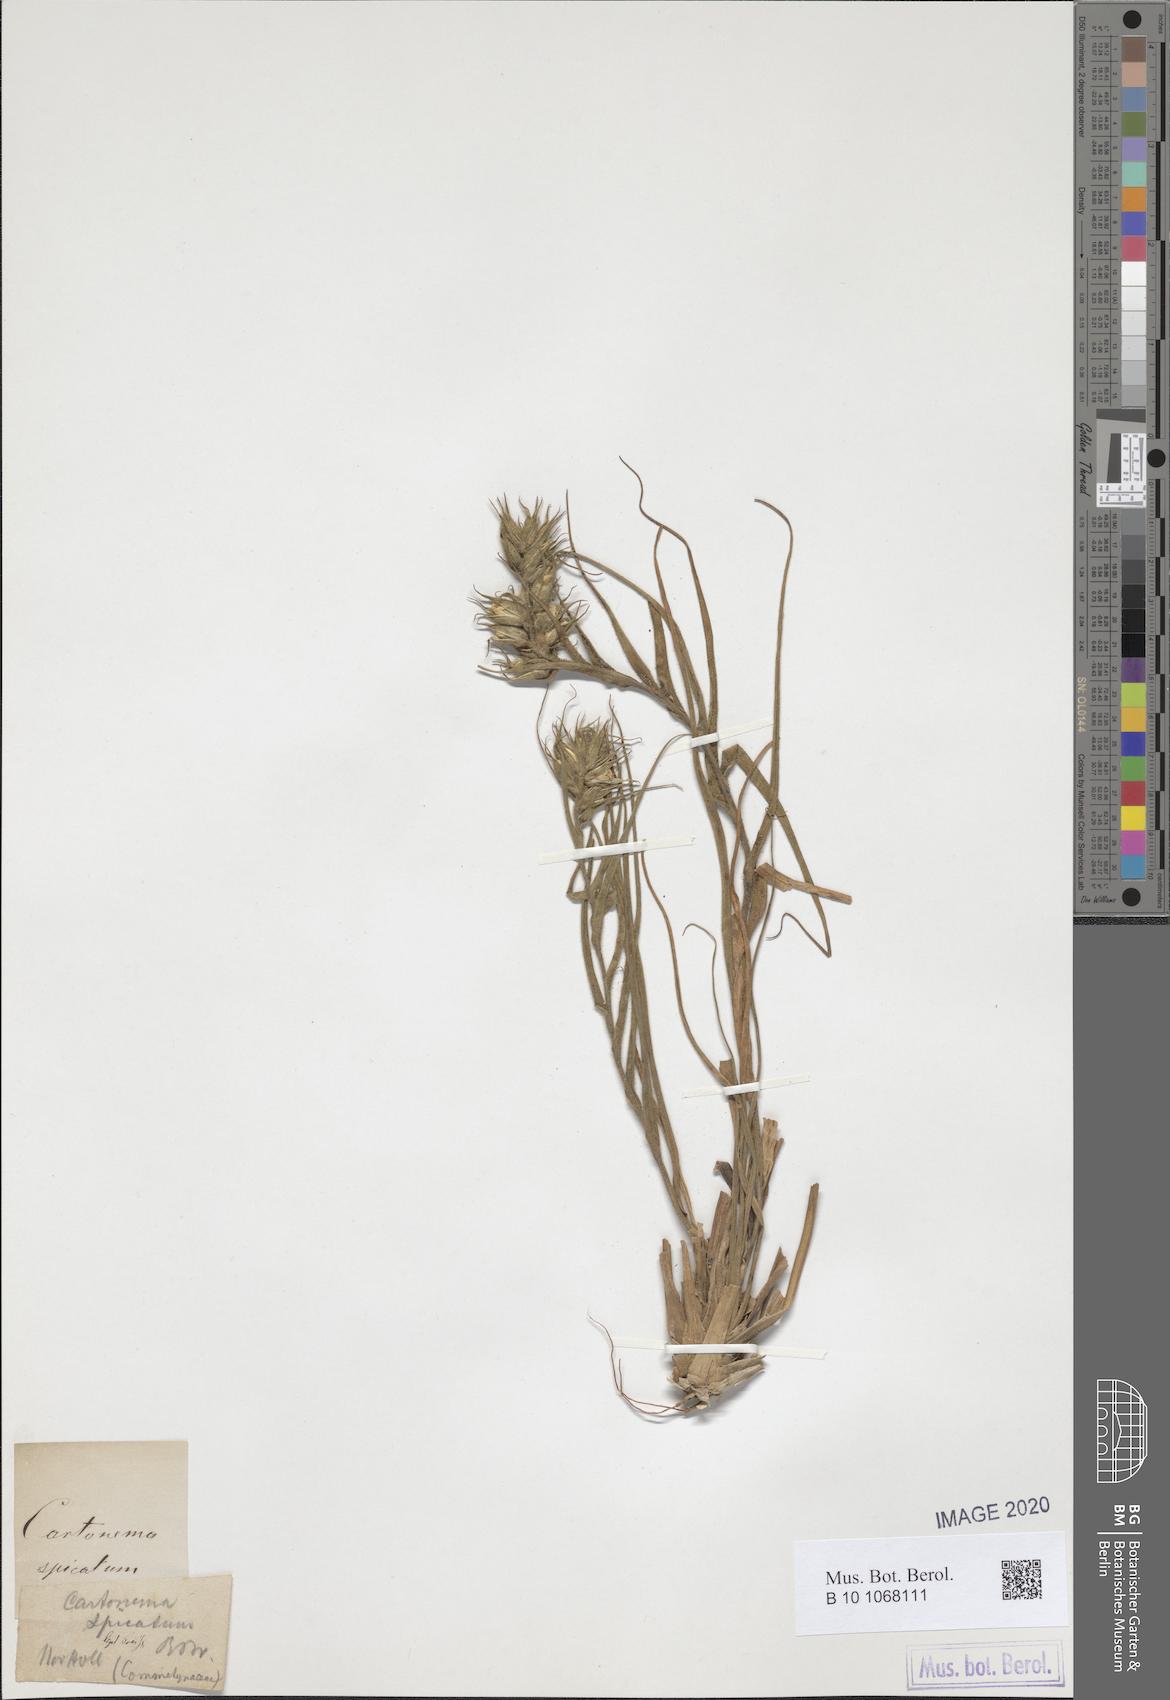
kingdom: Plantae
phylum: Tracheophyta
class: Liliopsida
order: Commelinales
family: Commelinaceae
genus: Cartonema
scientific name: Cartonema spicatum
